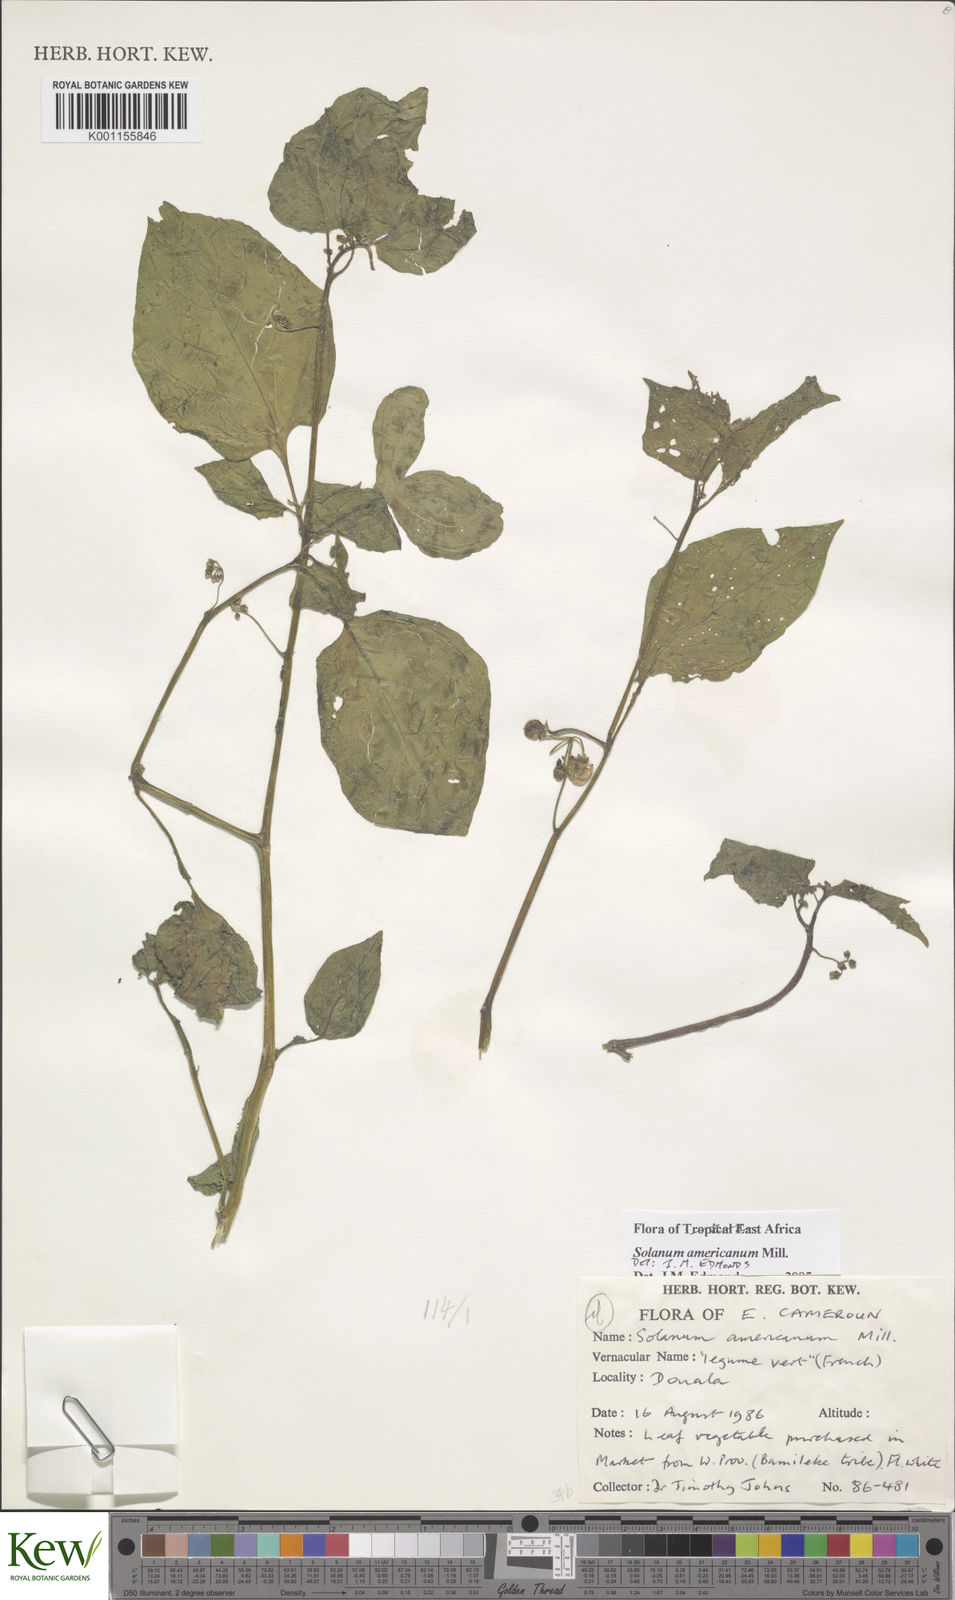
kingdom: Plantae
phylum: Tracheophyta
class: Magnoliopsida
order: Solanales
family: Solanaceae
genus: Solanum
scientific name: Solanum scabrum
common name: Garden-huckleberry
